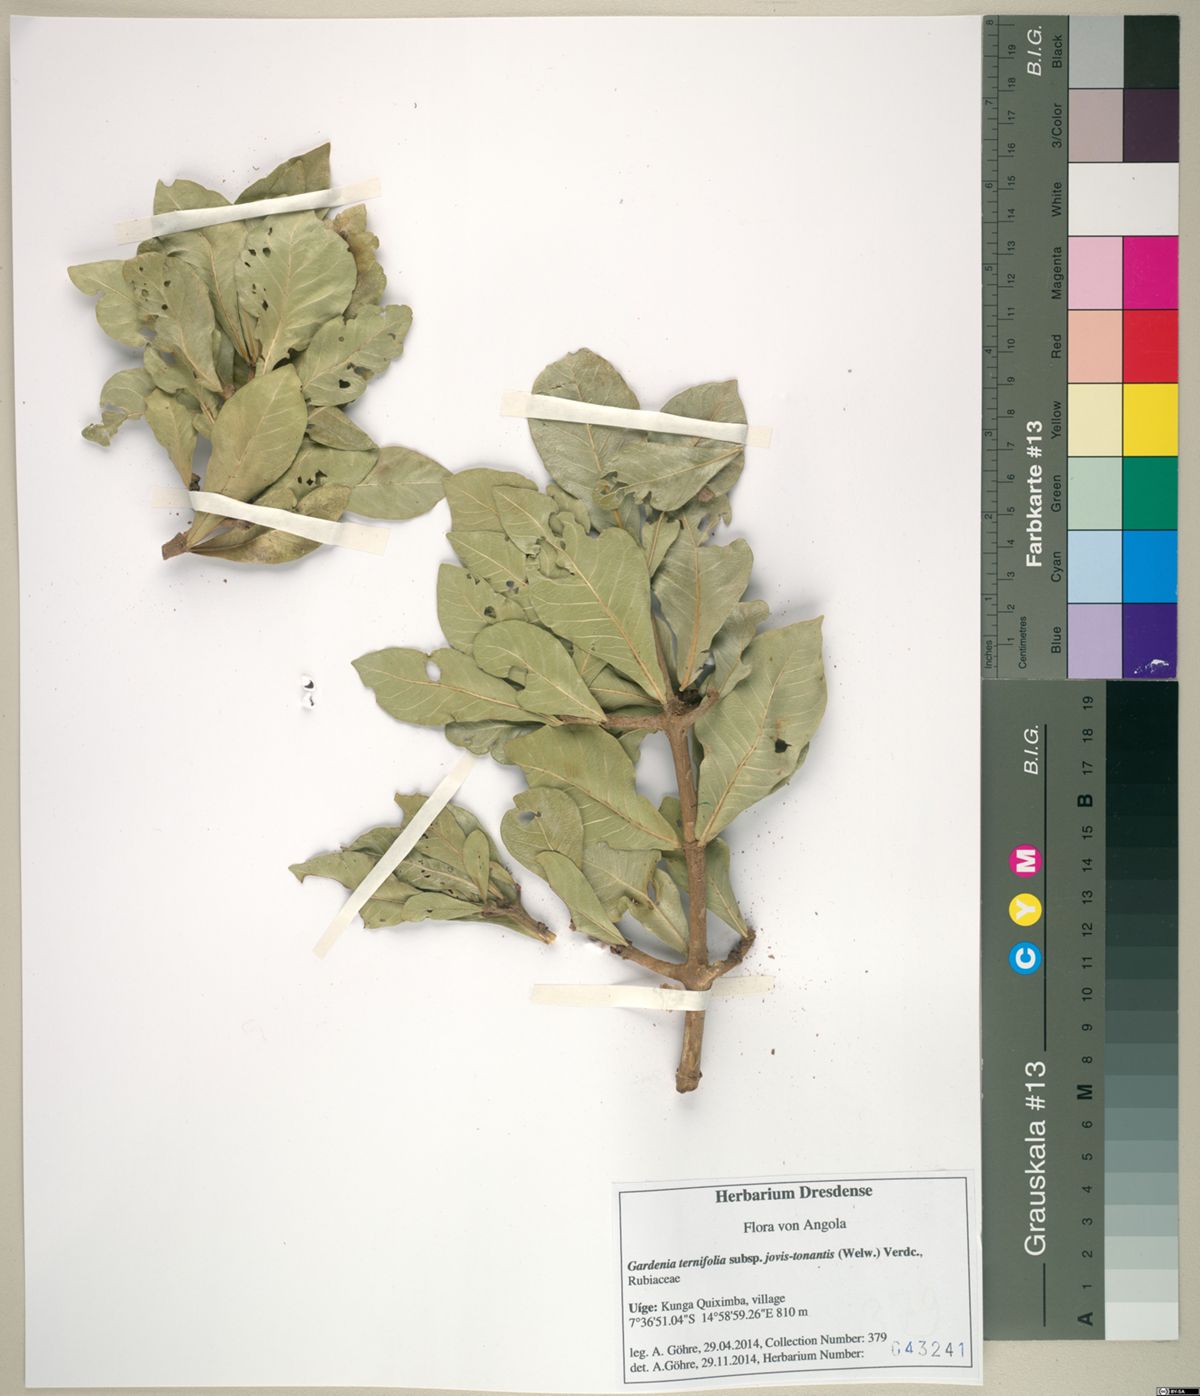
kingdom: Plantae
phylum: Tracheophyta
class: Magnoliopsida
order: Gentianales
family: Rubiaceae
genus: Gardenia
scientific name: Gardenia ternifolia
